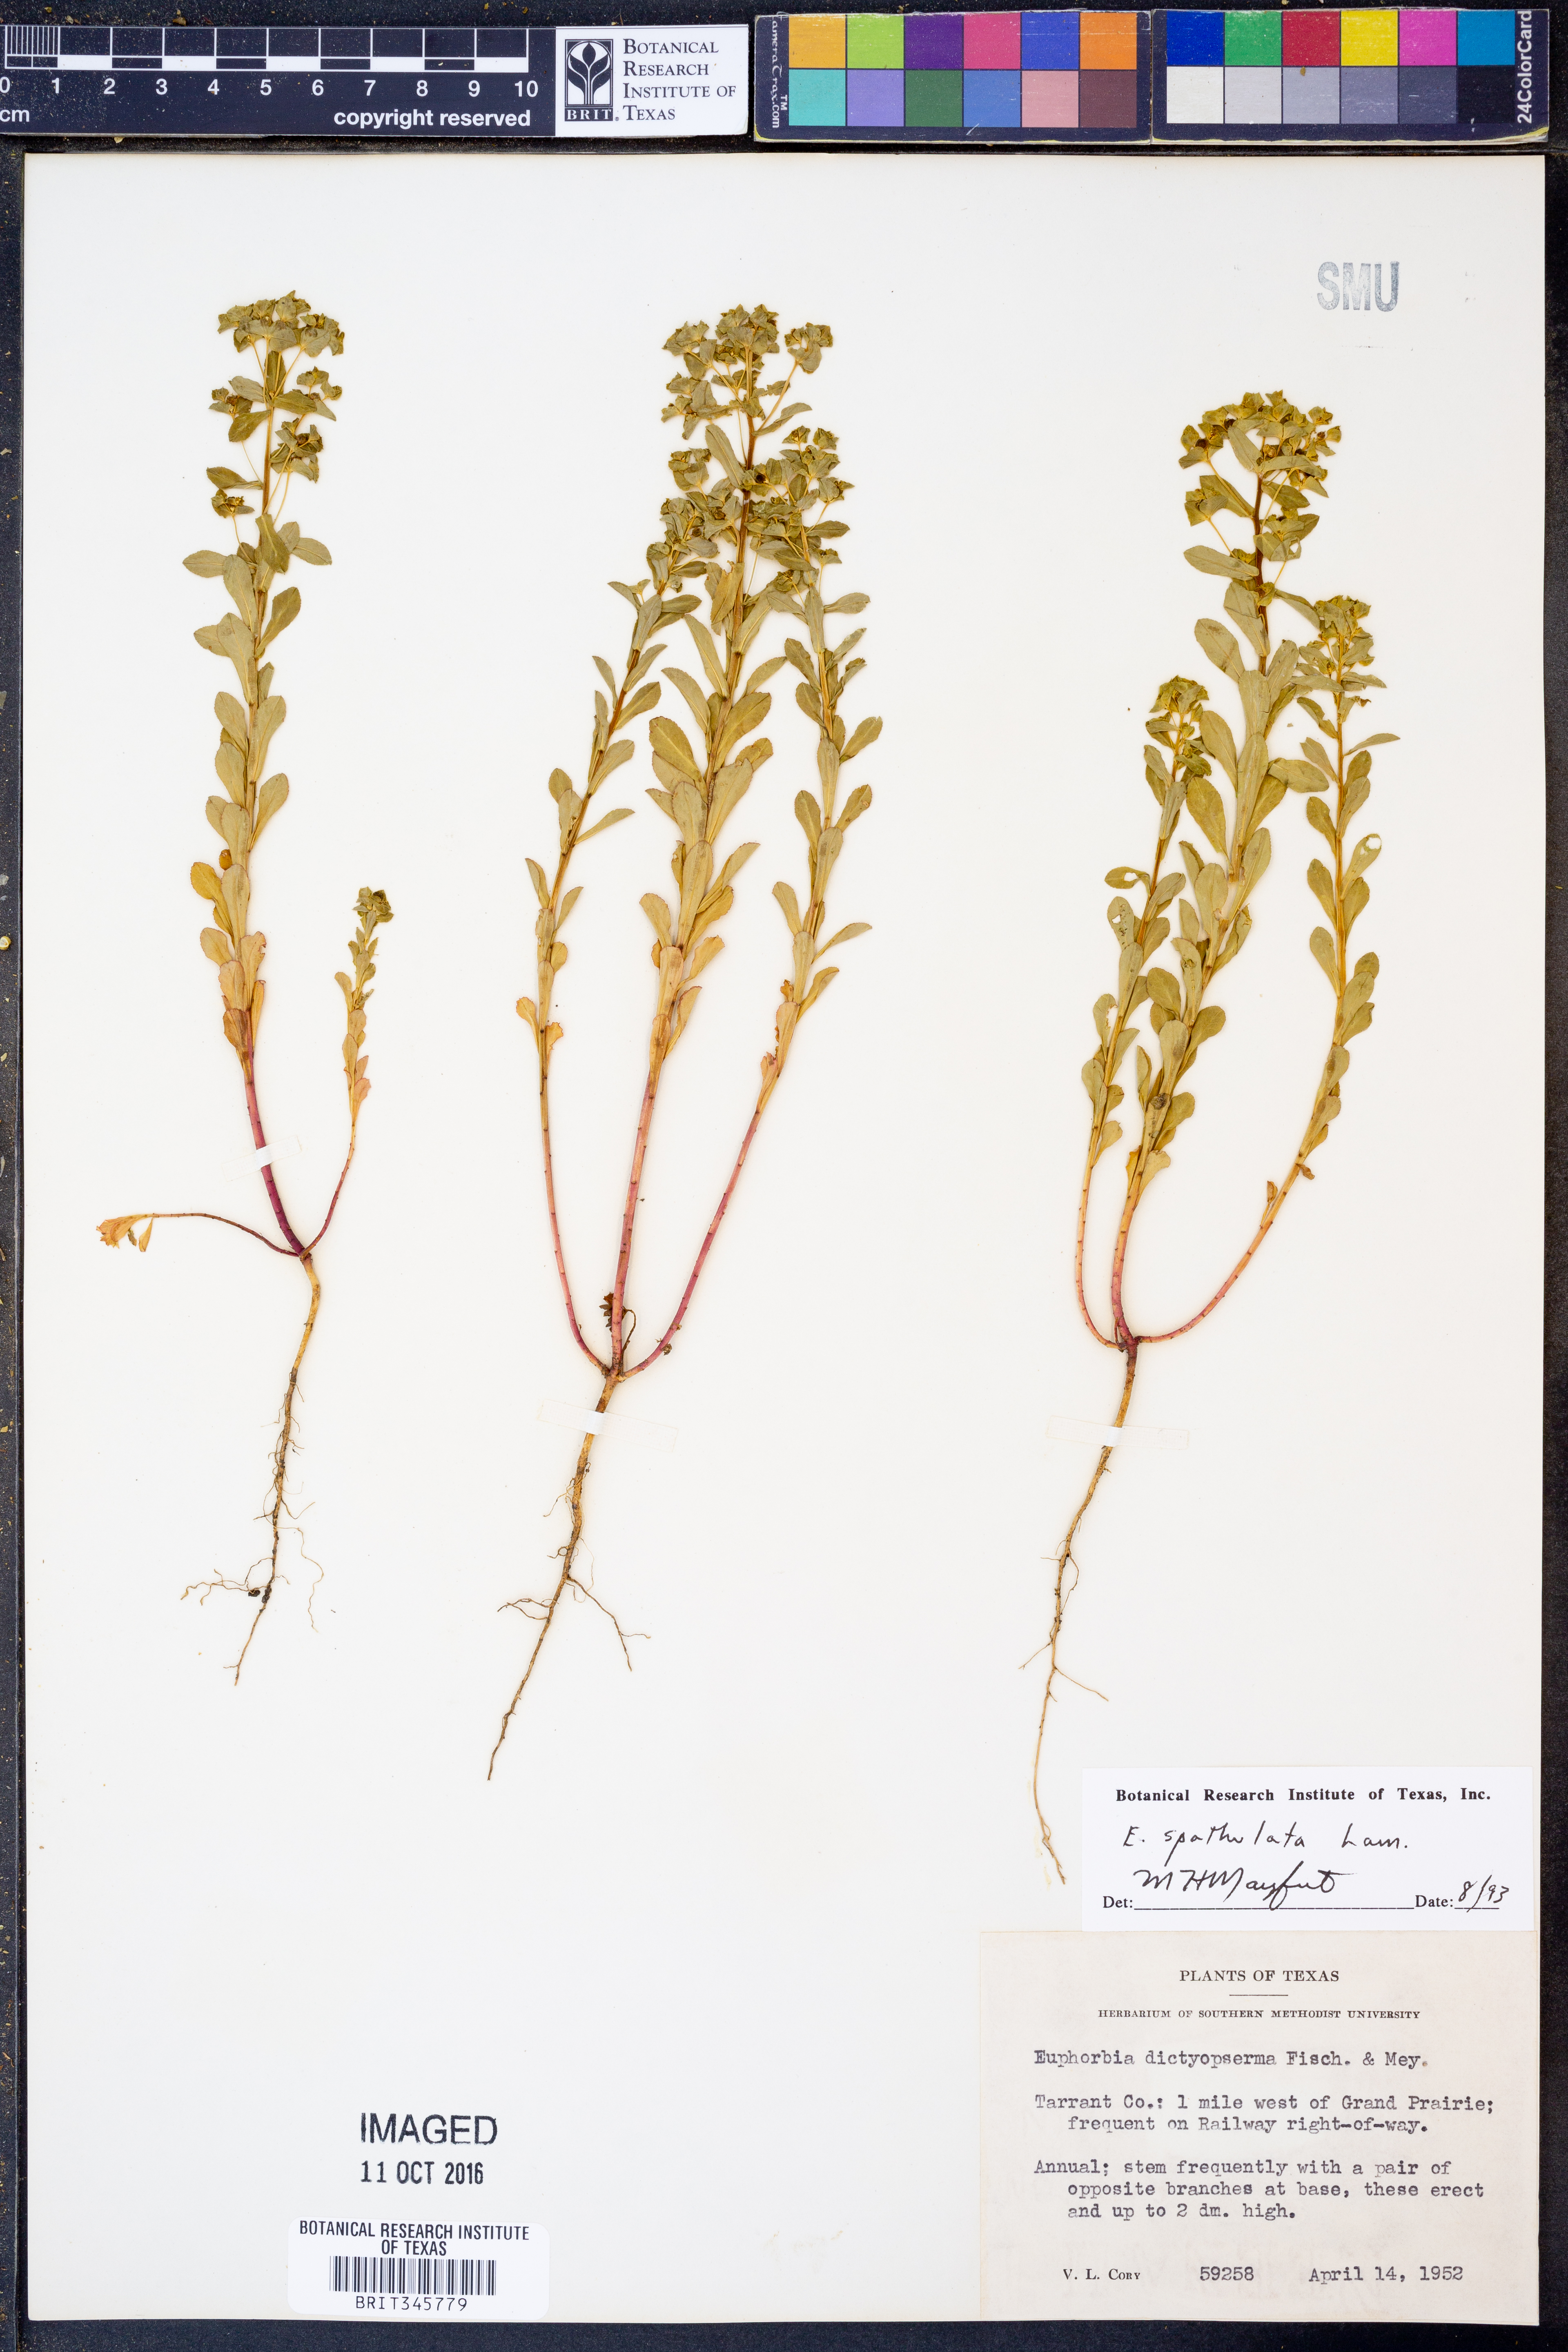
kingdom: Plantae
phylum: Tracheophyta
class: Magnoliopsida
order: Malpighiales
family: Euphorbiaceae
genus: Euphorbia
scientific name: Euphorbia spathulata
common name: Blunt spurge
